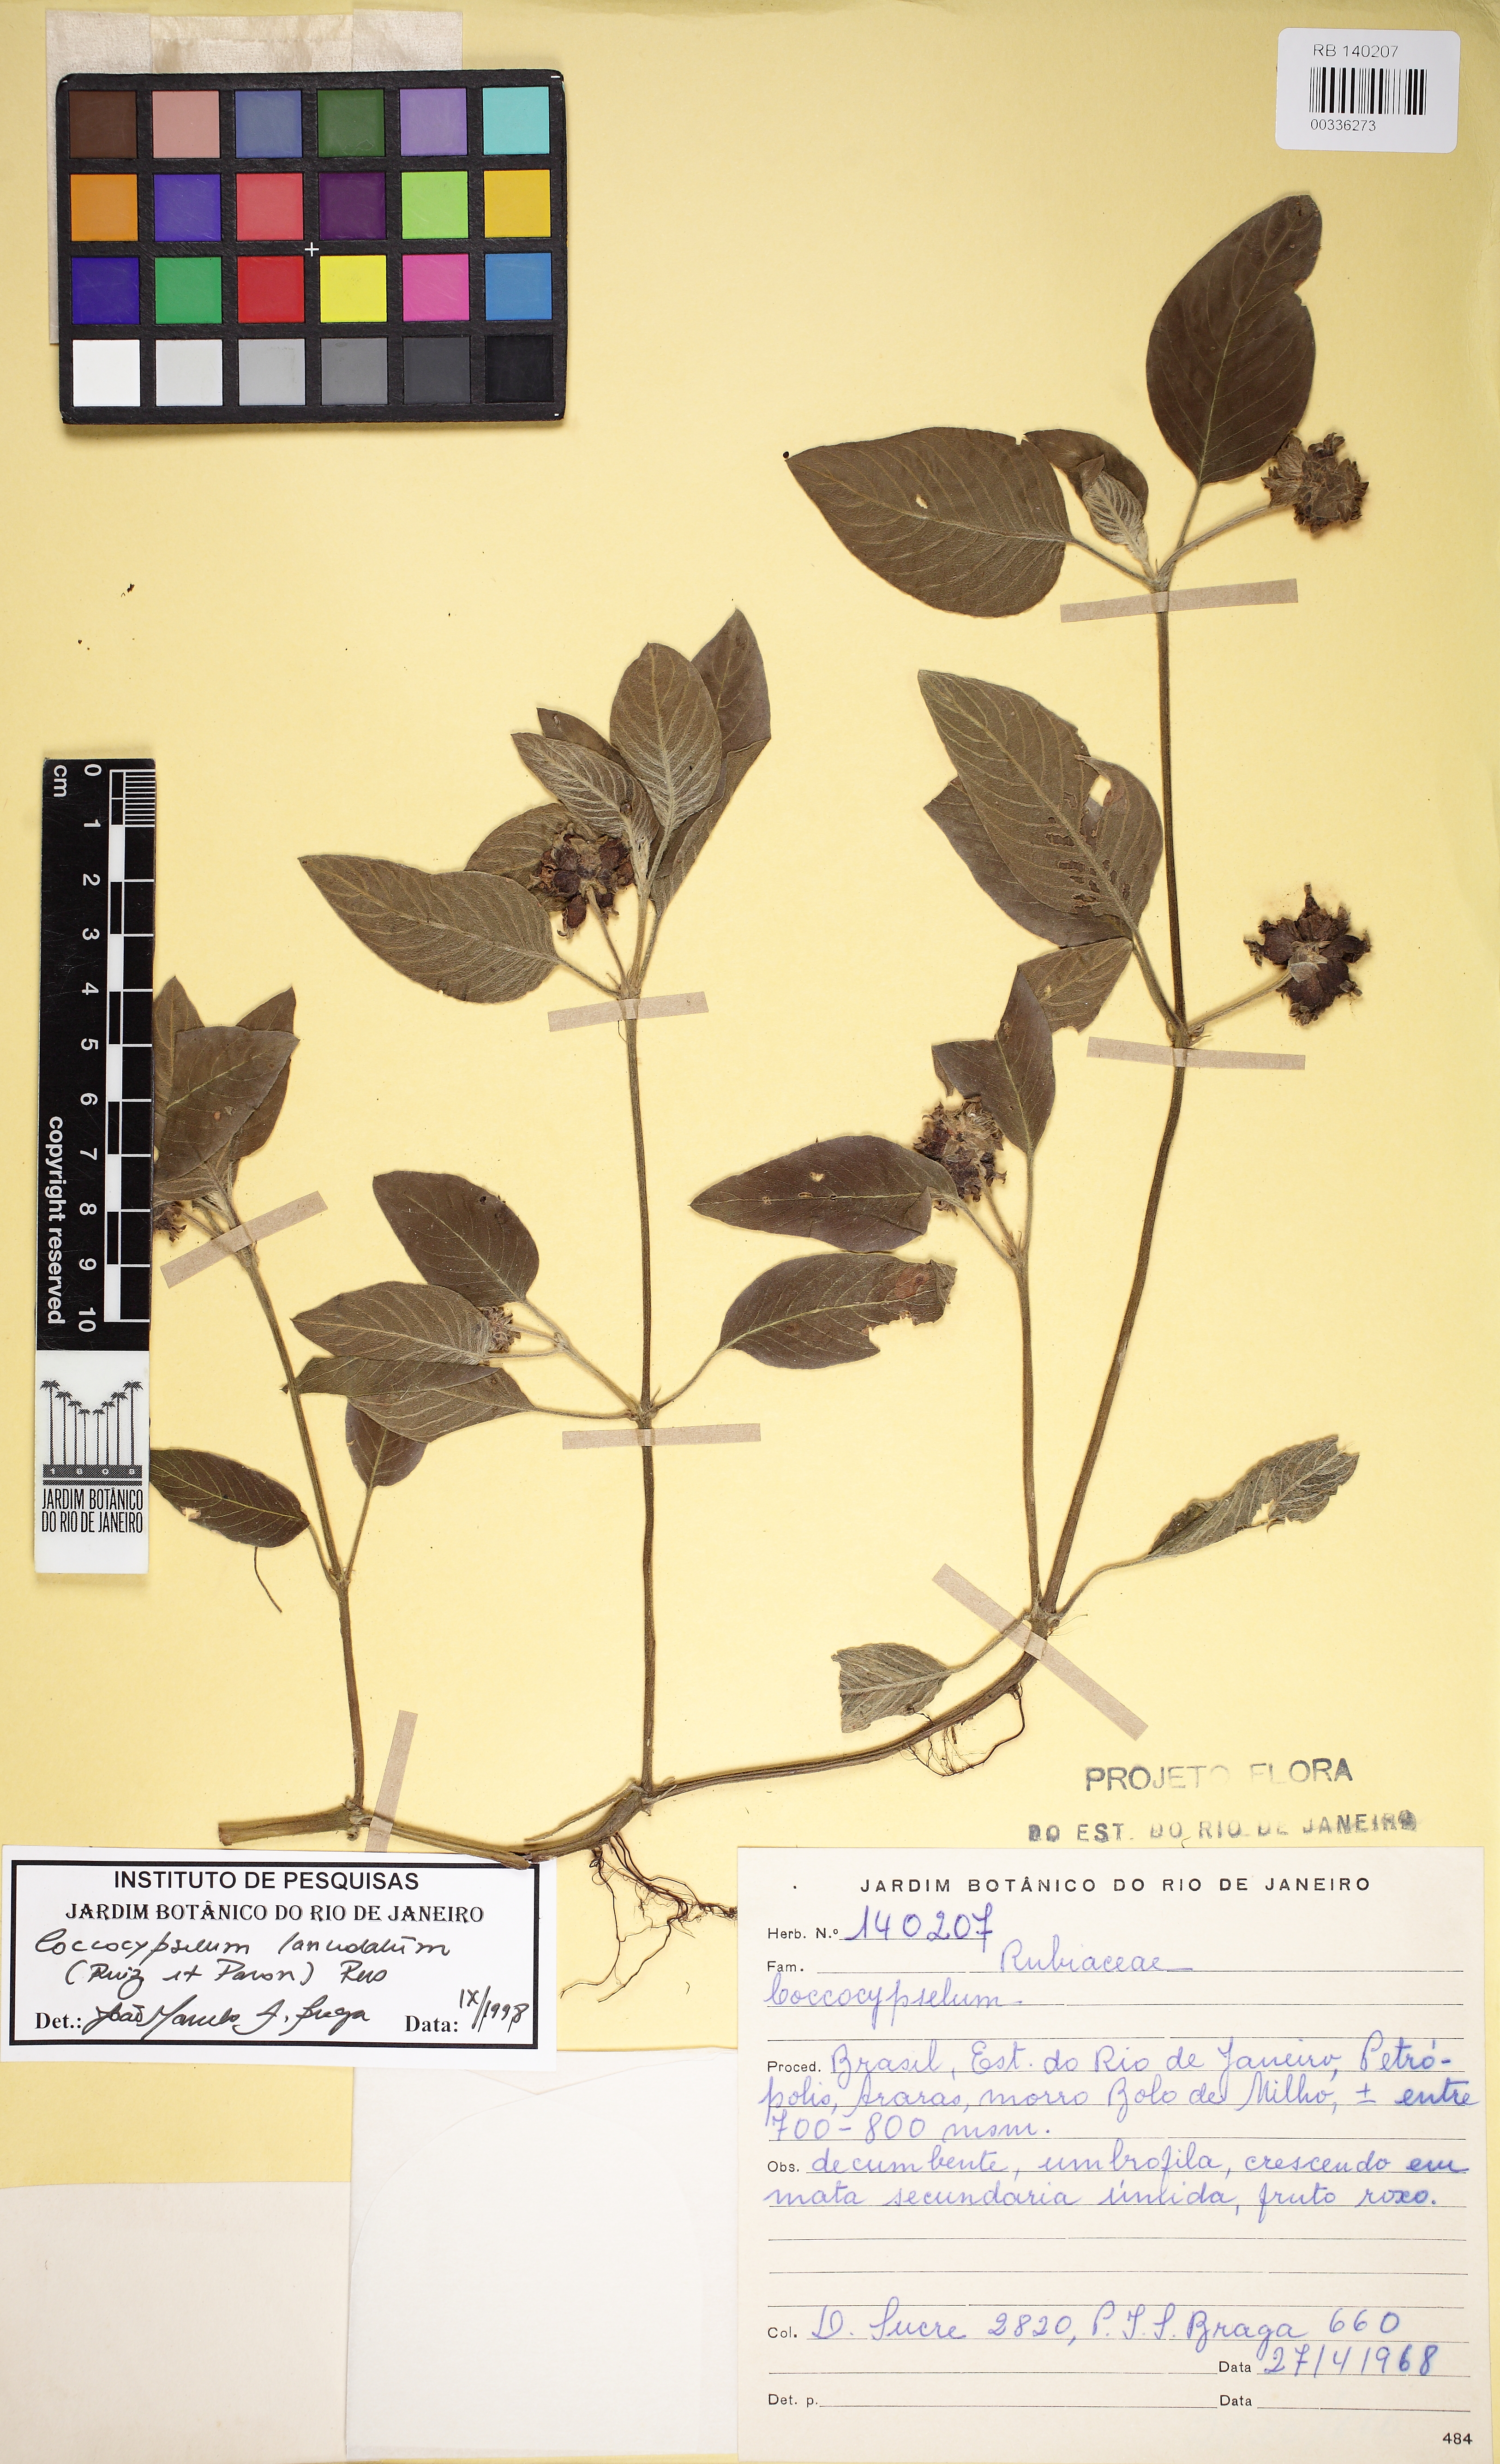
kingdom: Plantae
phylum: Tracheophyta
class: Magnoliopsida
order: Gentianales
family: Rubiaceae
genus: Coccocypselum
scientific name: Coccocypselum lanceolatum
